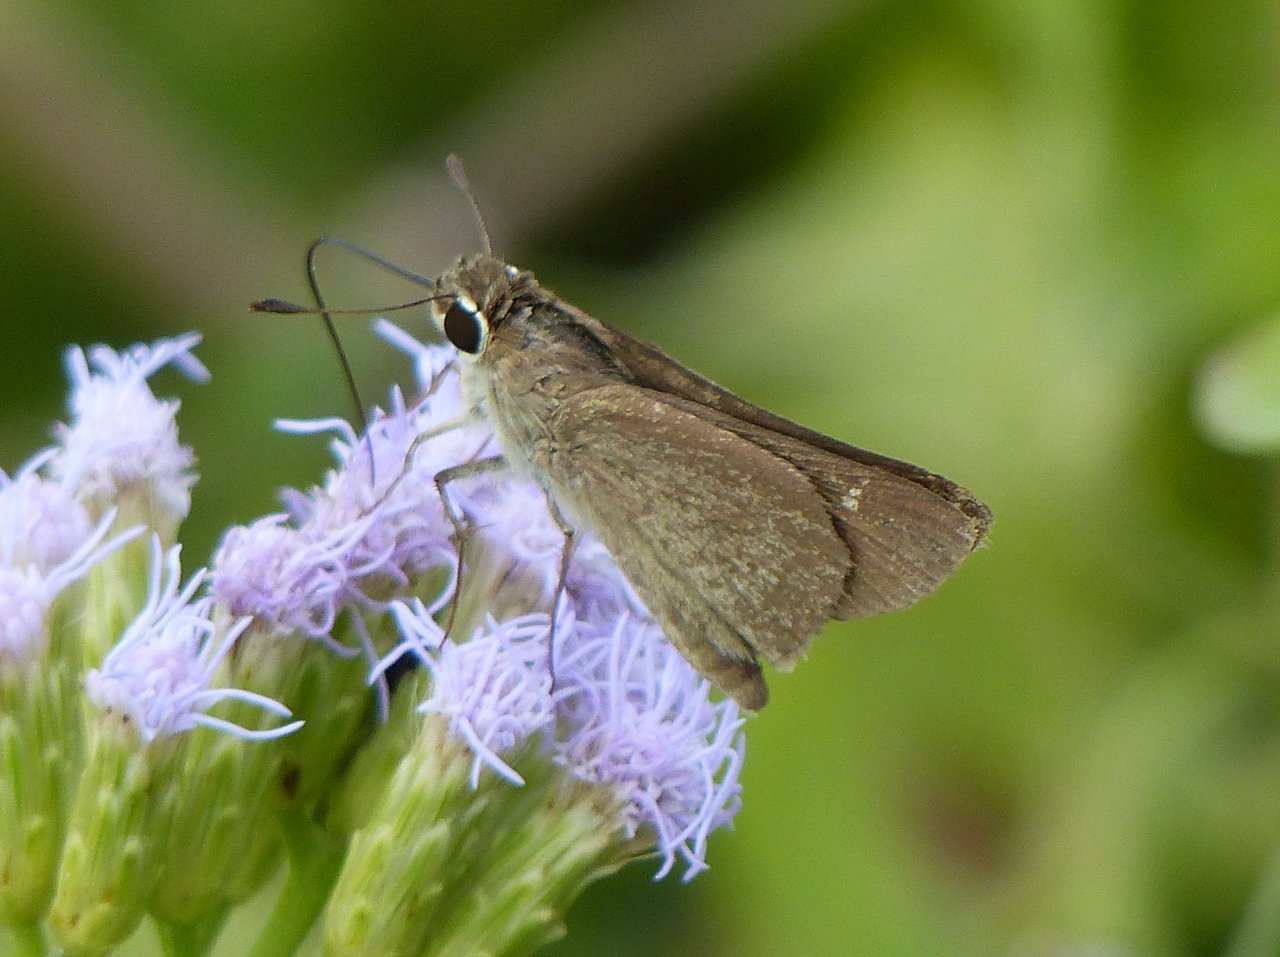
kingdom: Animalia
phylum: Arthropoda
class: Insecta
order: Lepidoptera
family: Hesperiidae
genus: Lerodea
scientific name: Lerodea eufala
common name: Eufala Skipper
